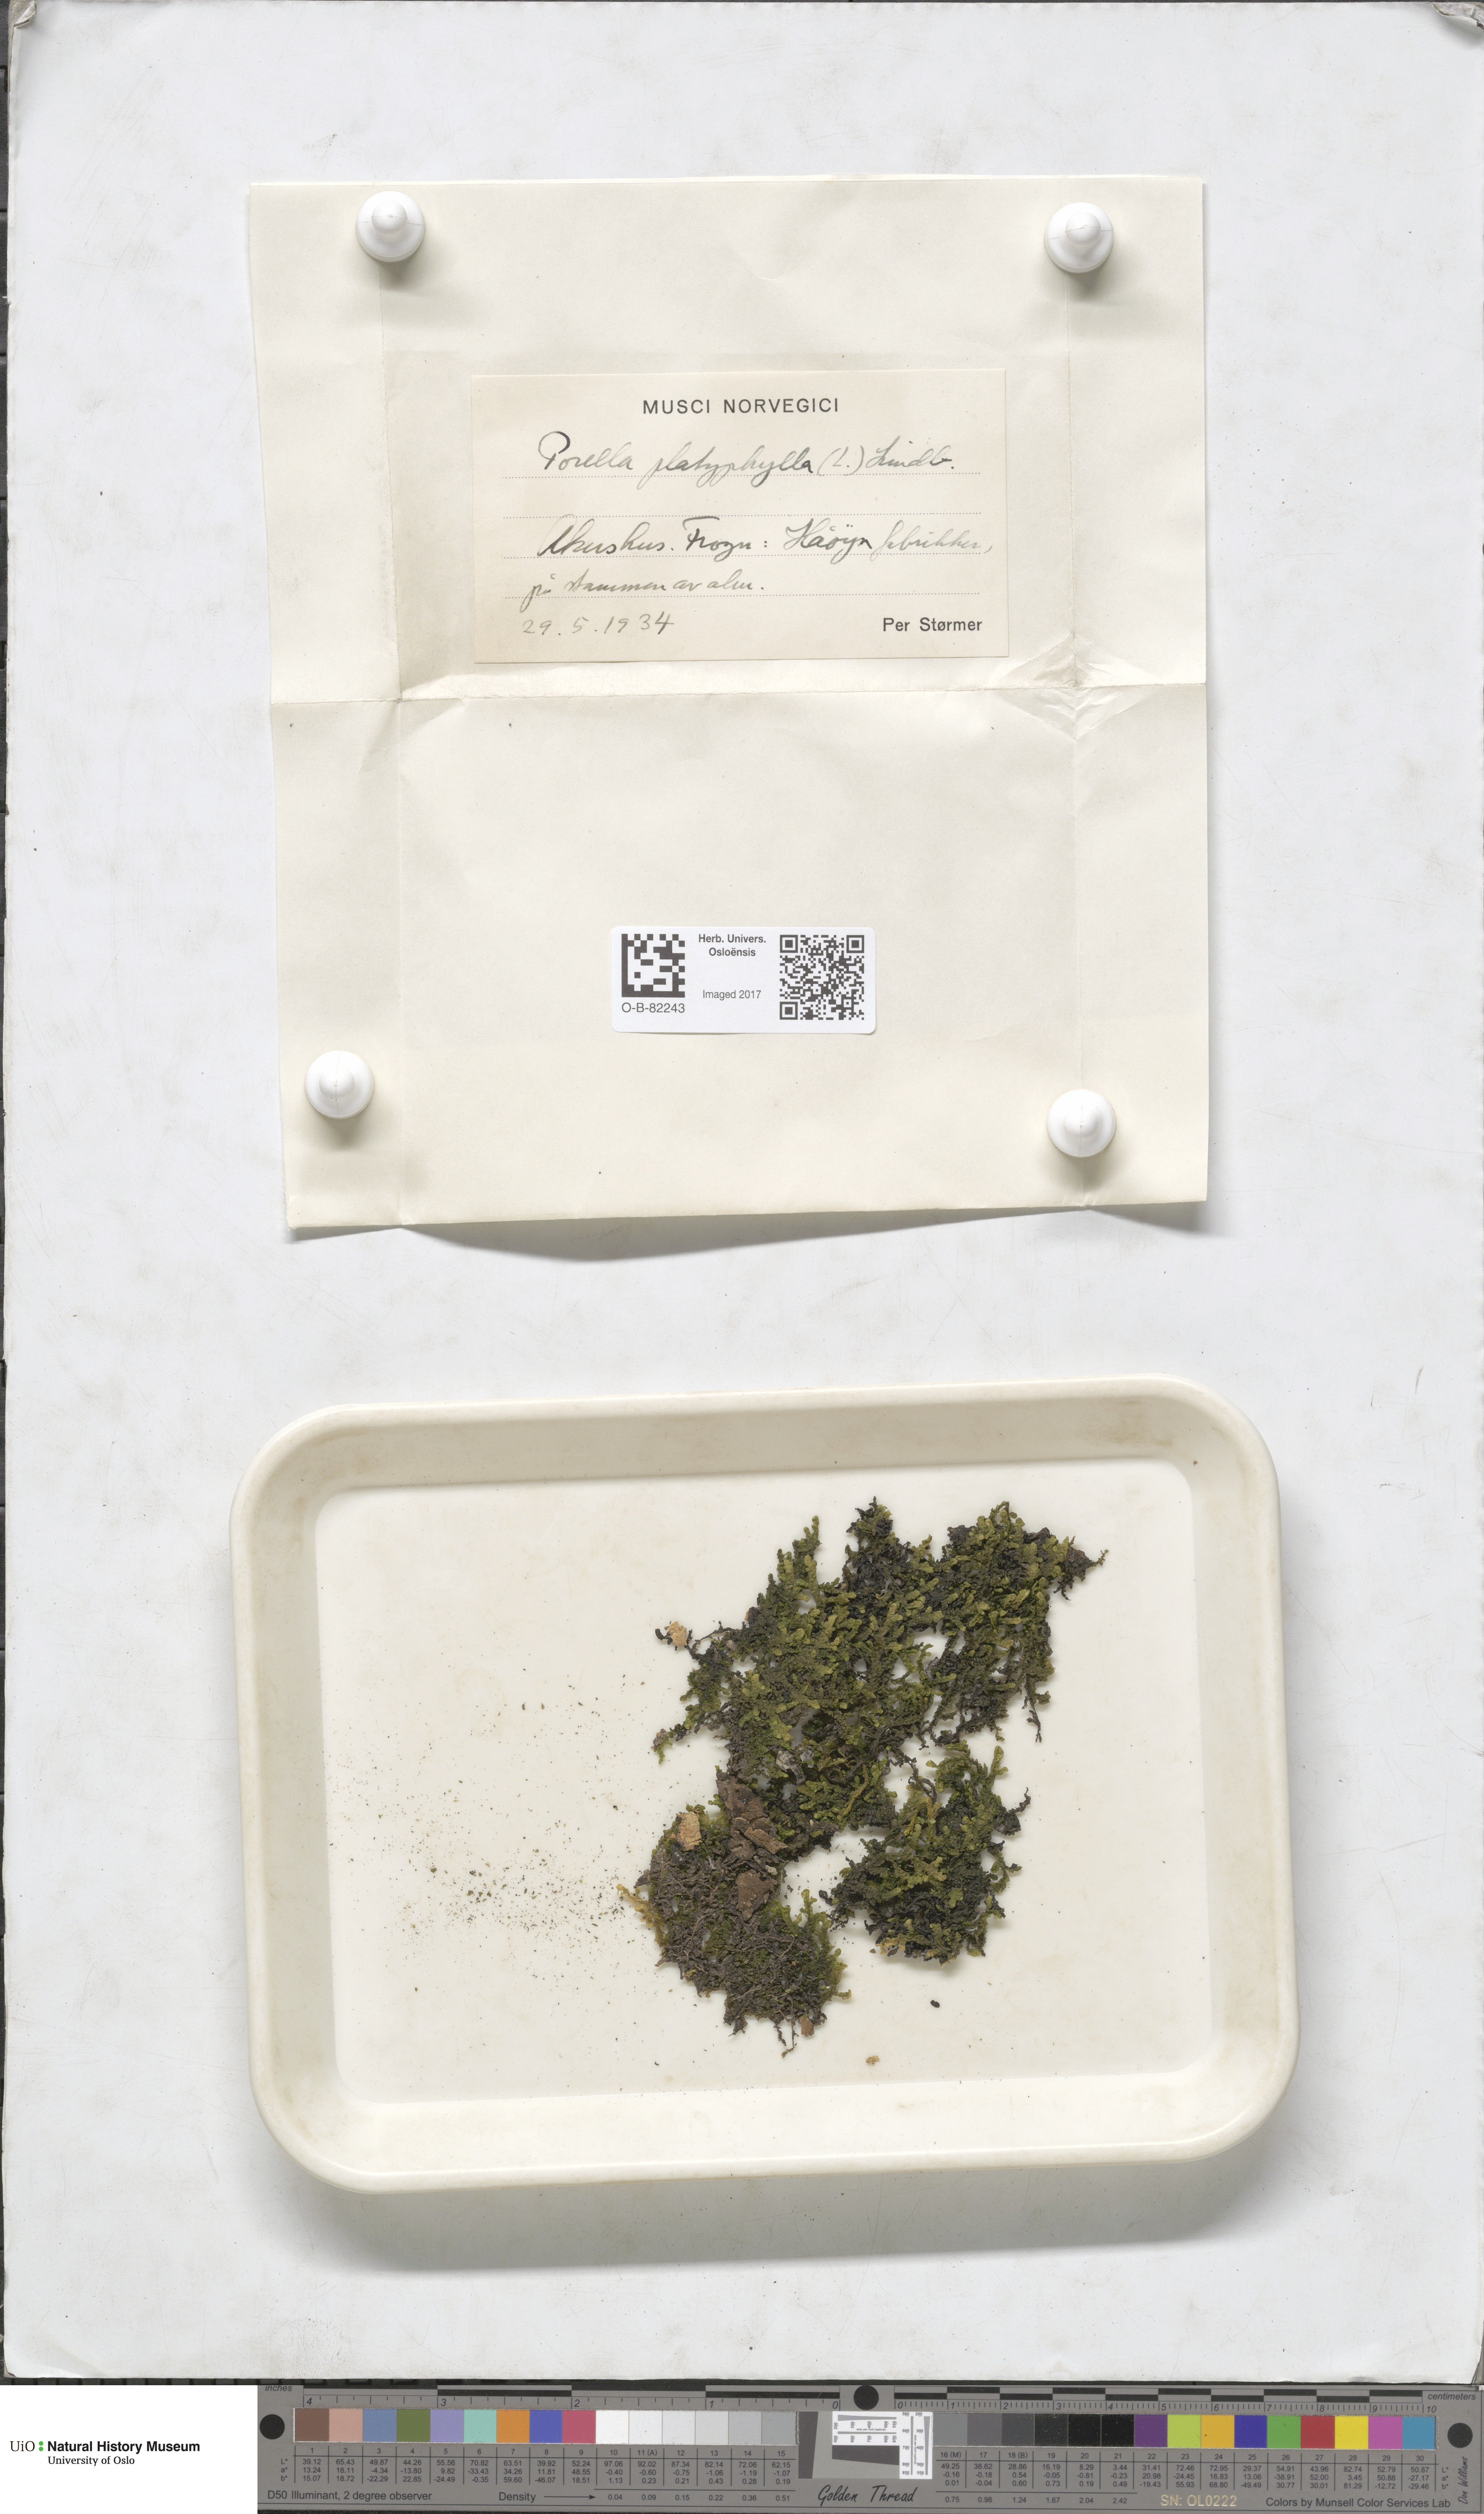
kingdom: Plantae
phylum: Marchantiophyta
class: Jungermanniopsida
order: Porellales
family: Porellaceae
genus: Porella
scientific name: Porella platyphylla
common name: Wall scalewort
